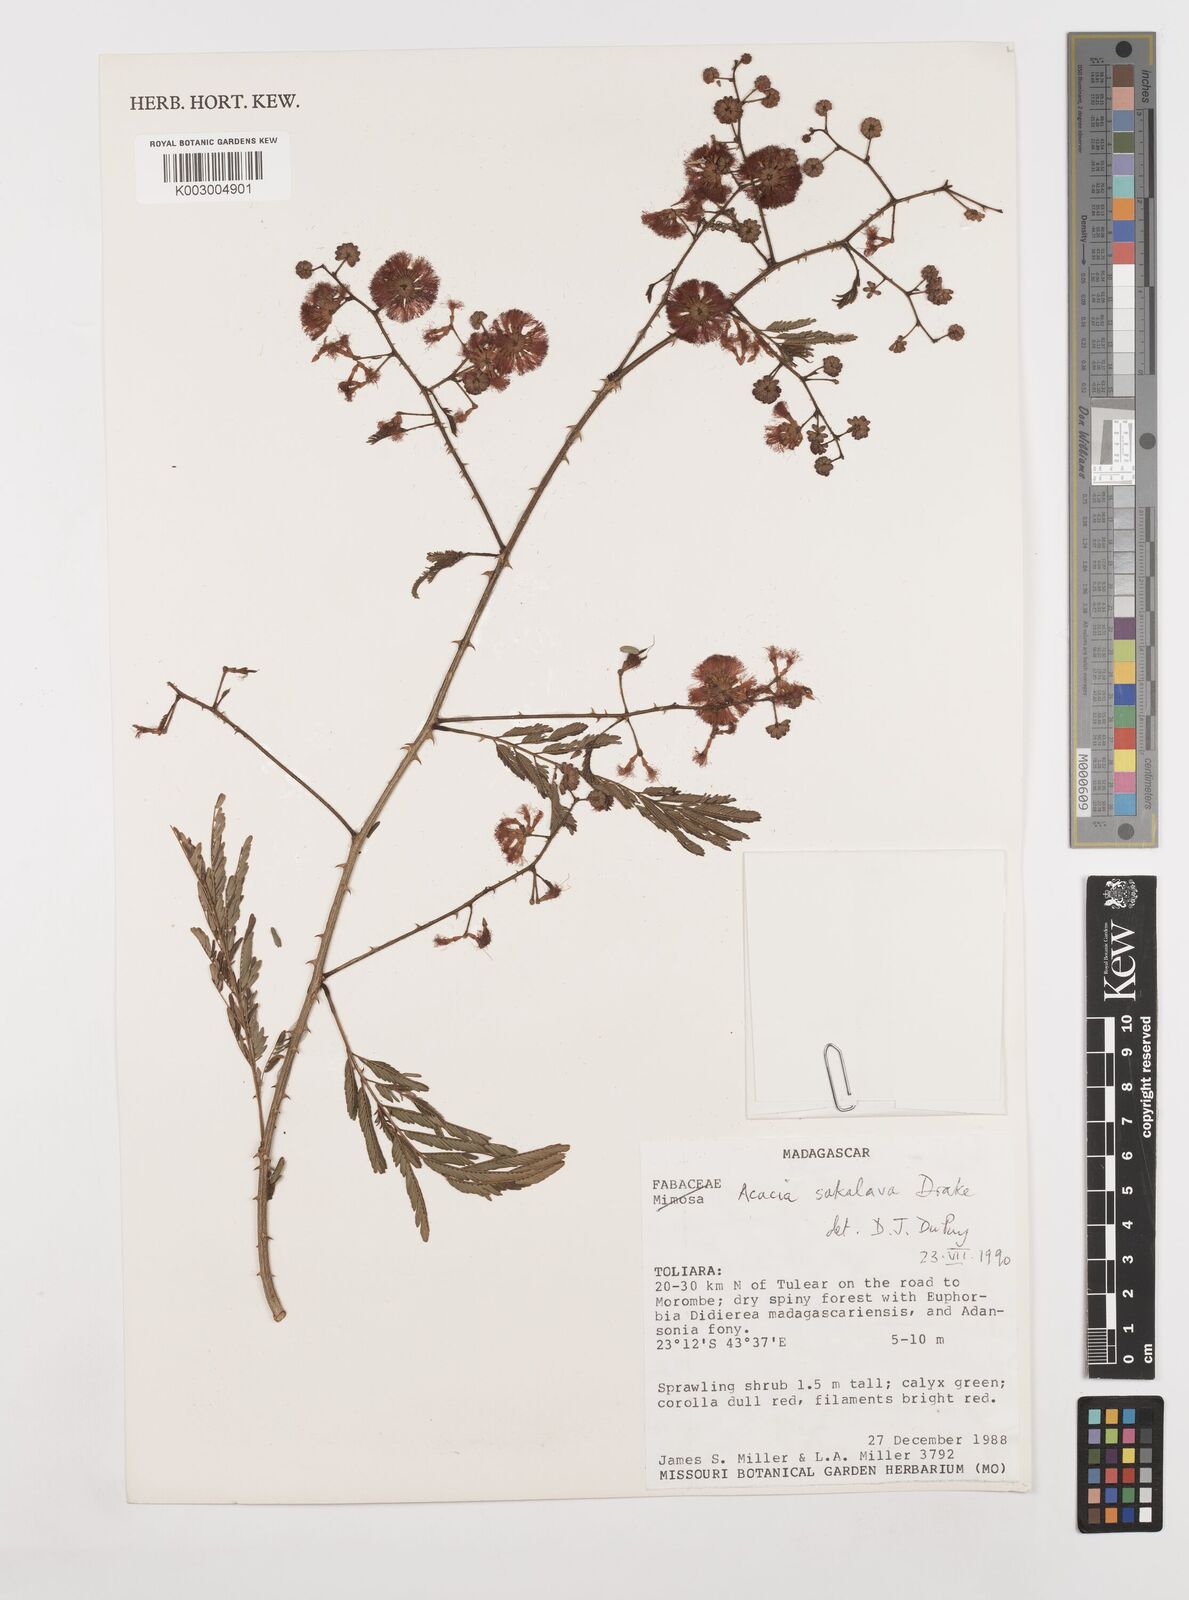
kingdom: Plantae
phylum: Tracheophyta
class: Magnoliopsida
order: Fabales
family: Fabaceae
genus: Senegalia
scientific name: Senegalia sakalava
